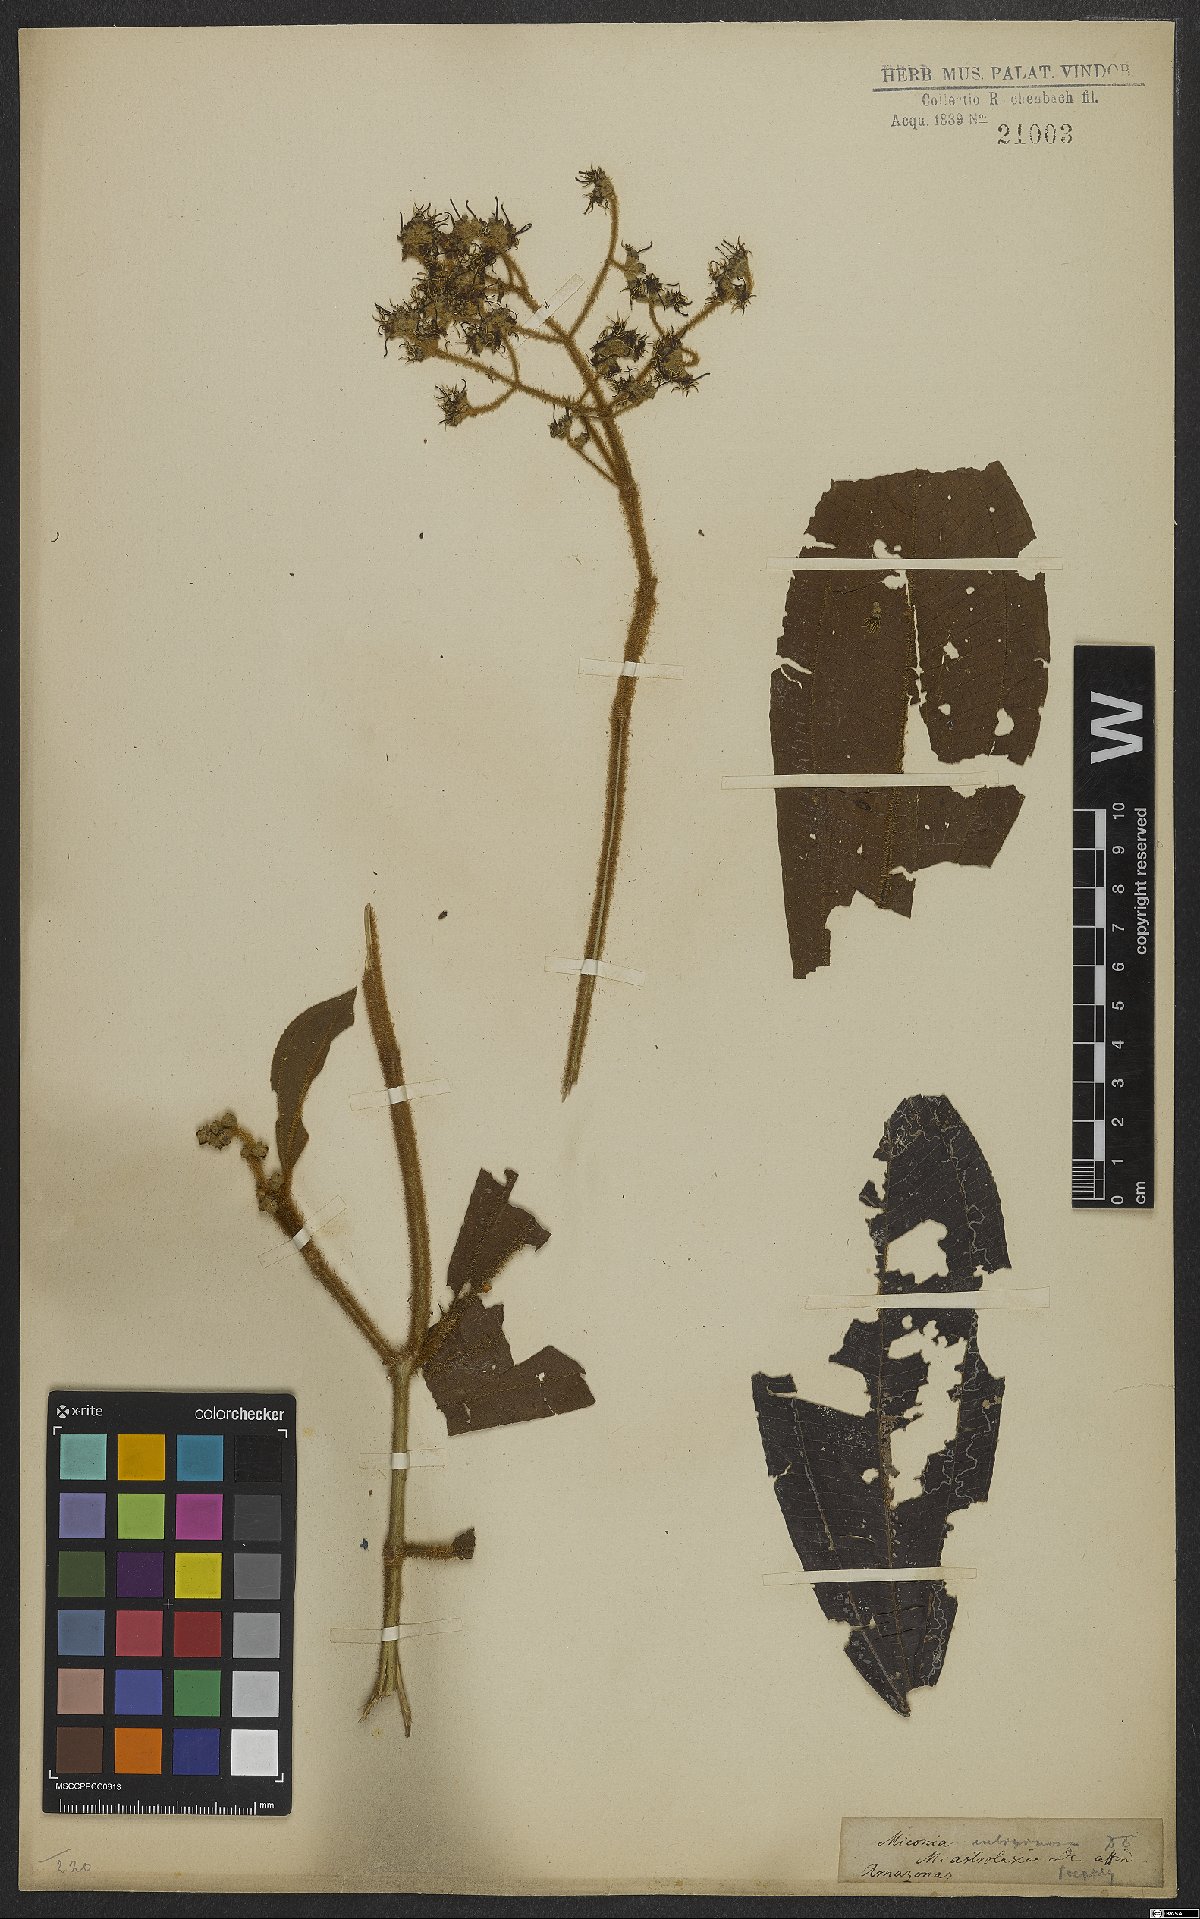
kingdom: Plantae
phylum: Tracheophyta
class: Magnoliopsida
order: Myrtales
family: Melastomataceae
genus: Miconia
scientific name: Miconia rubiginosa
